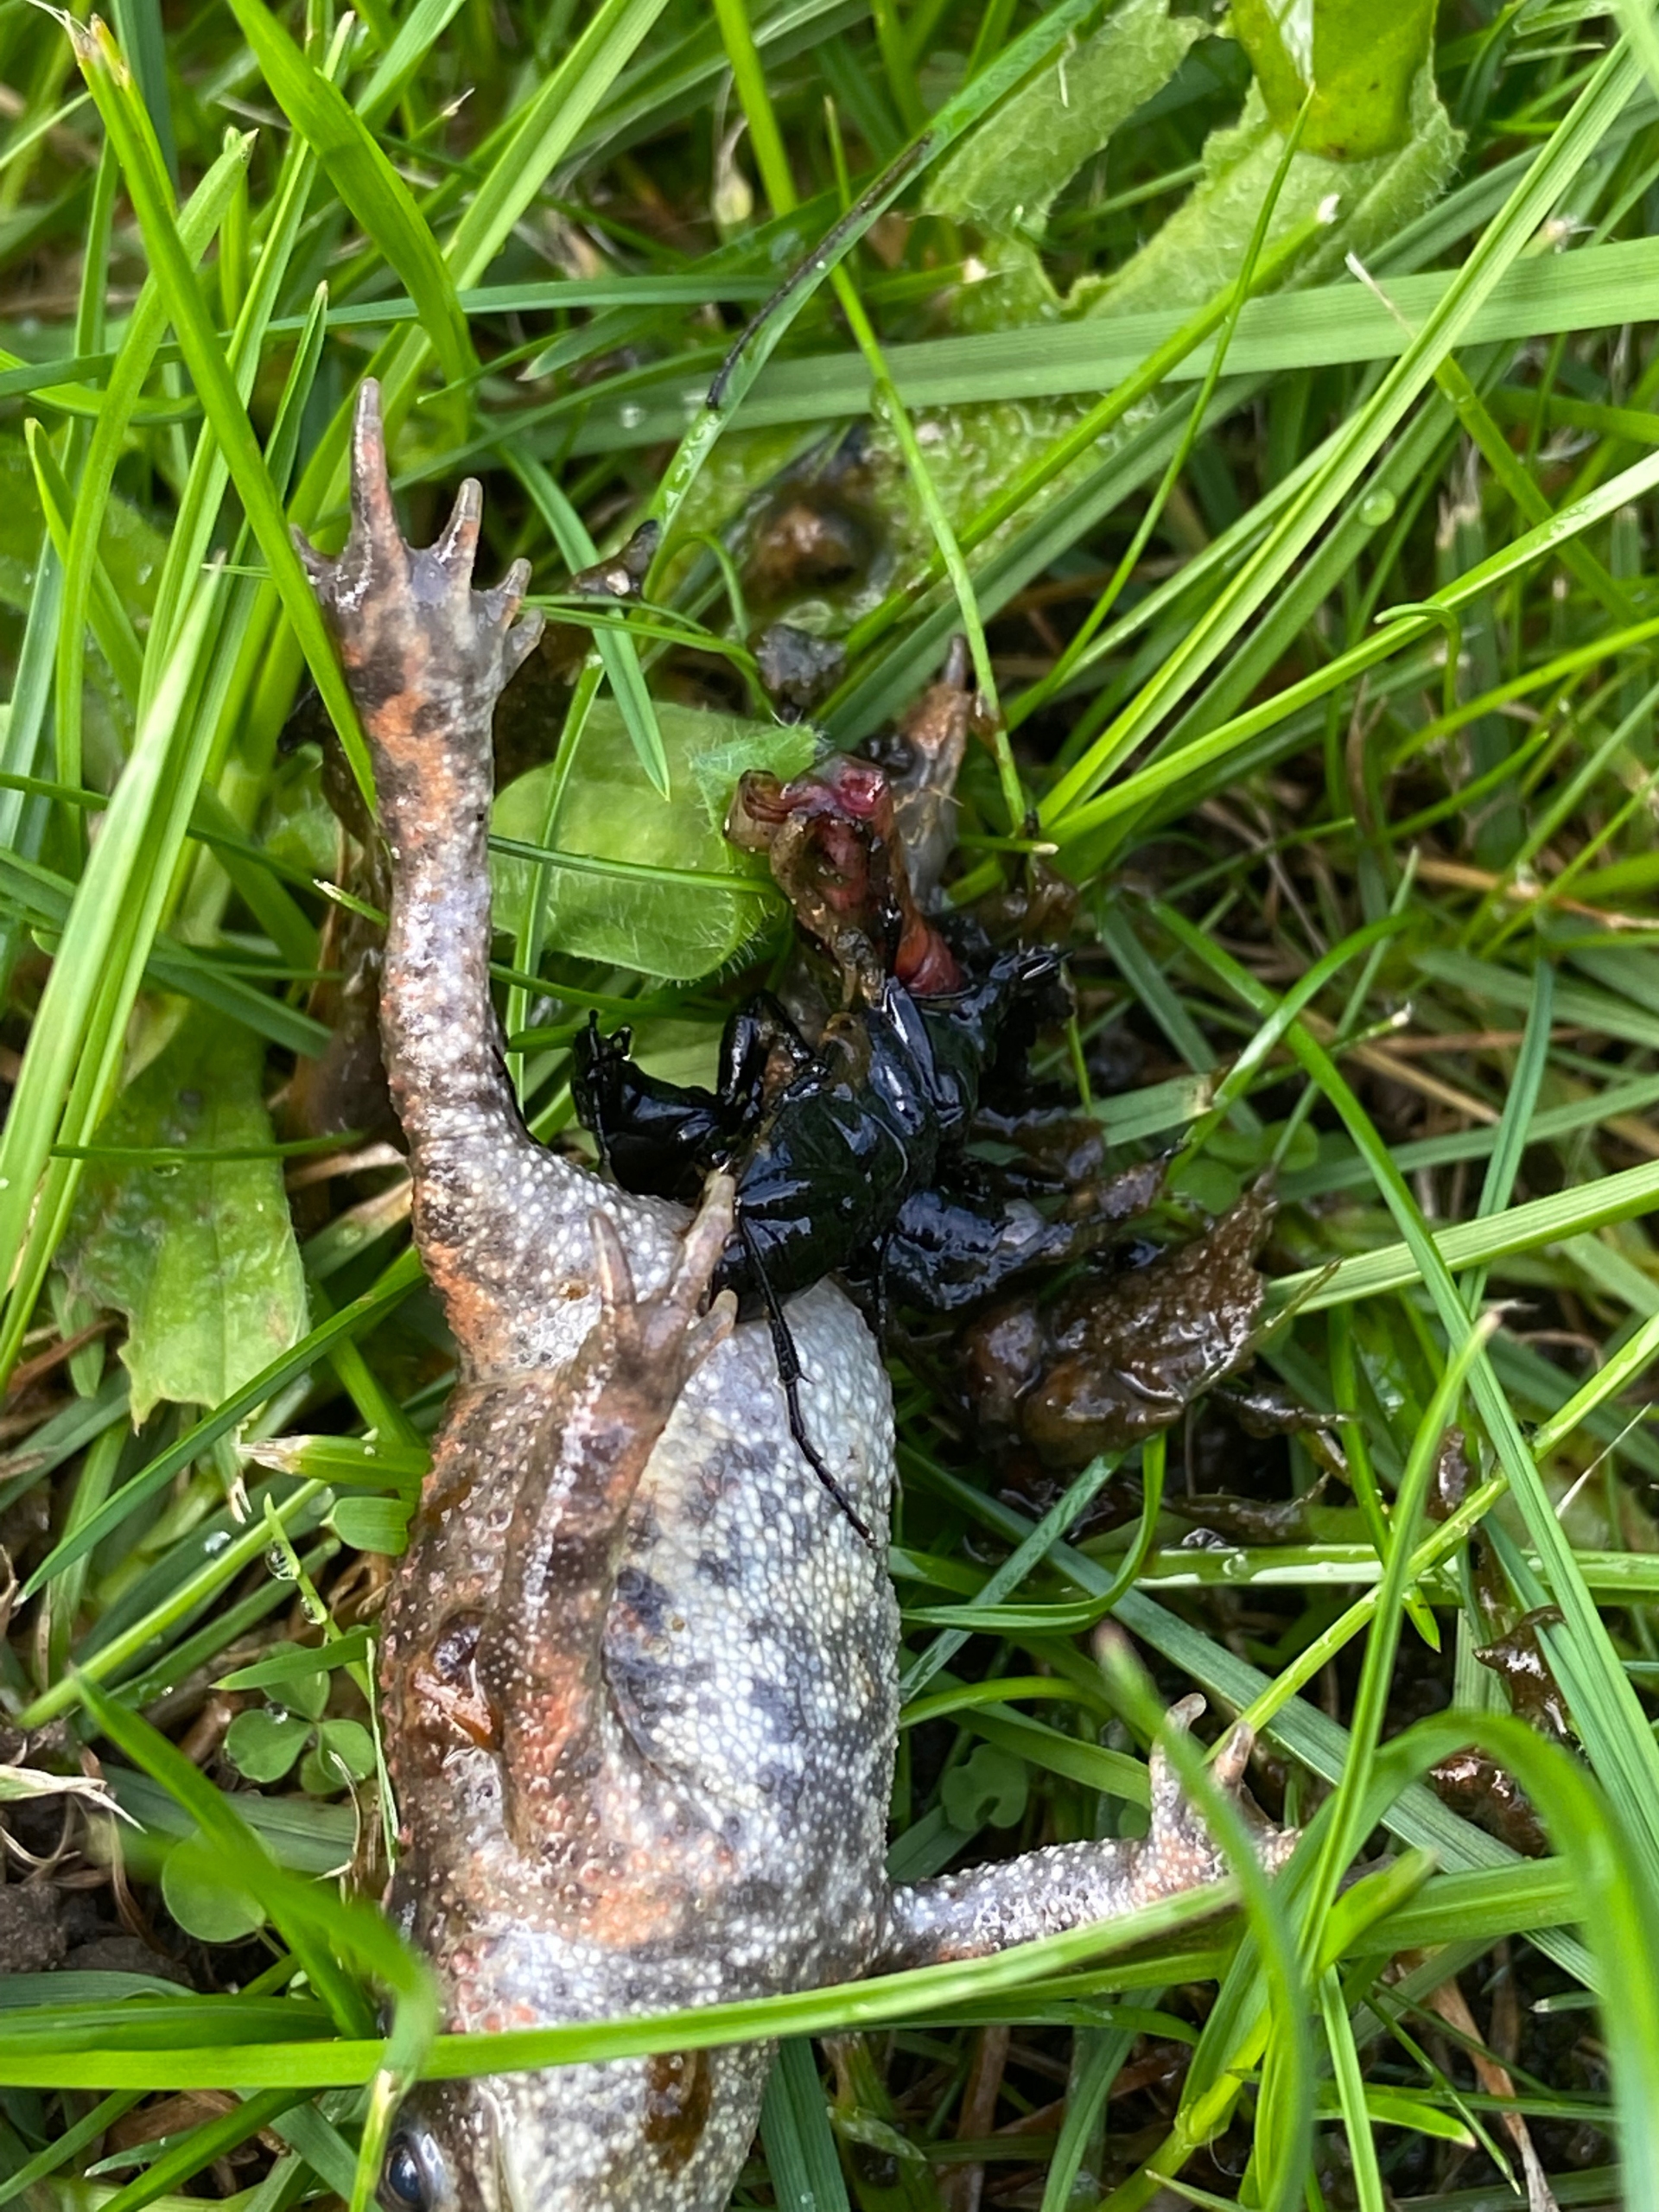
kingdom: Animalia
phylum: Chordata
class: Amphibia
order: Anura
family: Bufonidae
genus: Bufo
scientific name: Bufo bufo
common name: Skrubtudse
